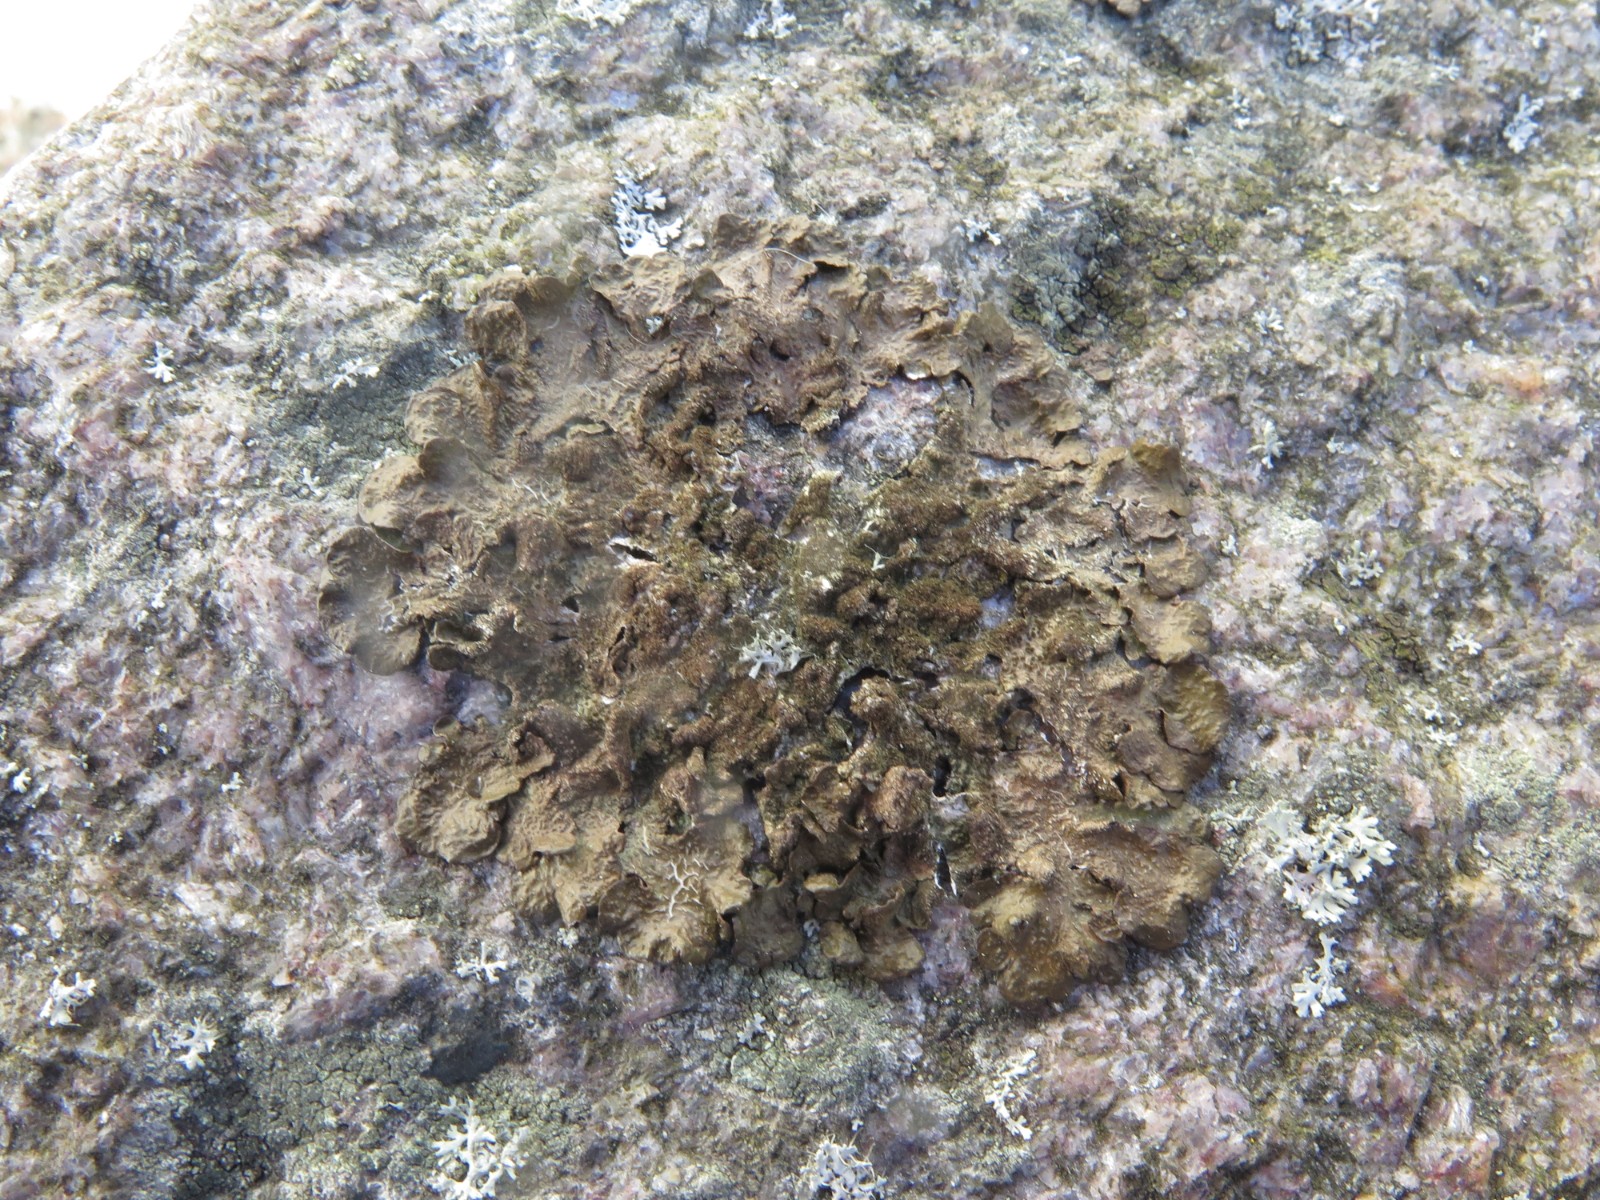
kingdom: Fungi
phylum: Ascomycota
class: Lecanoromycetes
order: Lecanorales
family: Parmeliaceae
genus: Melanelixia
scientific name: Melanelixia subaurifera
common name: guldpudret skållav
